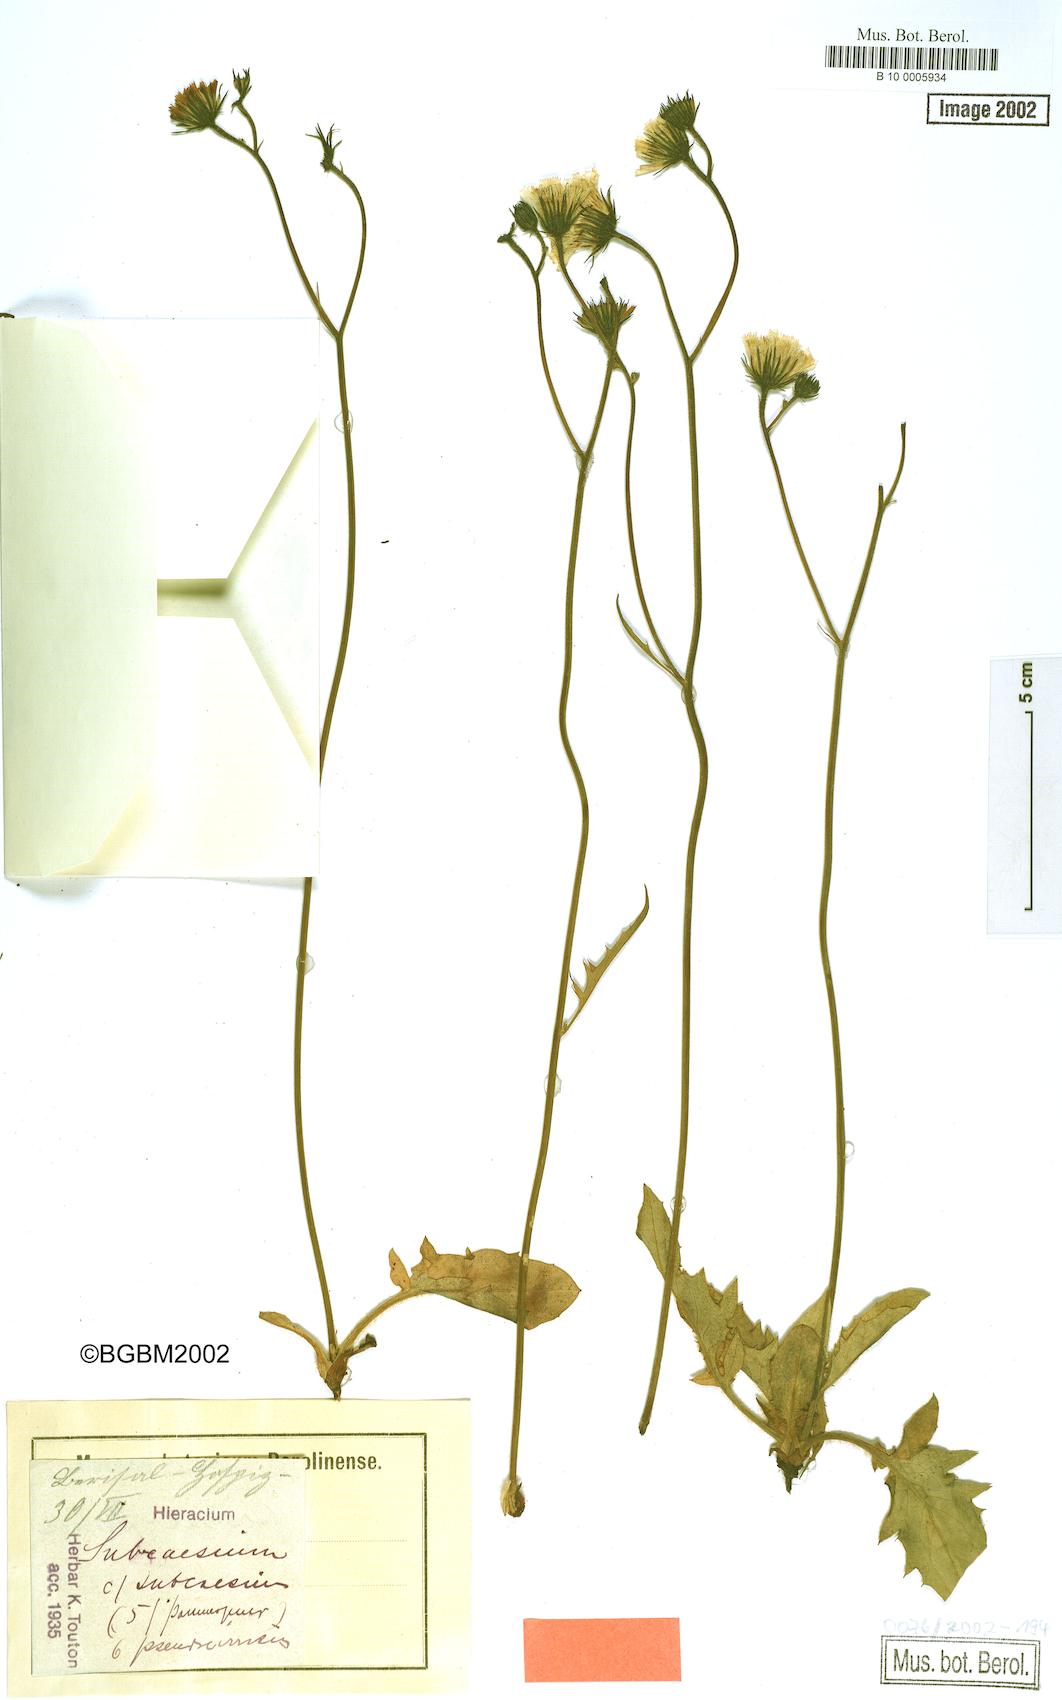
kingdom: Plantae
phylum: Tracheophyta
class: Magnoliopsida
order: Asterales
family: Asteraceae
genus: Hieracium
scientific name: Hieracium cirritum
